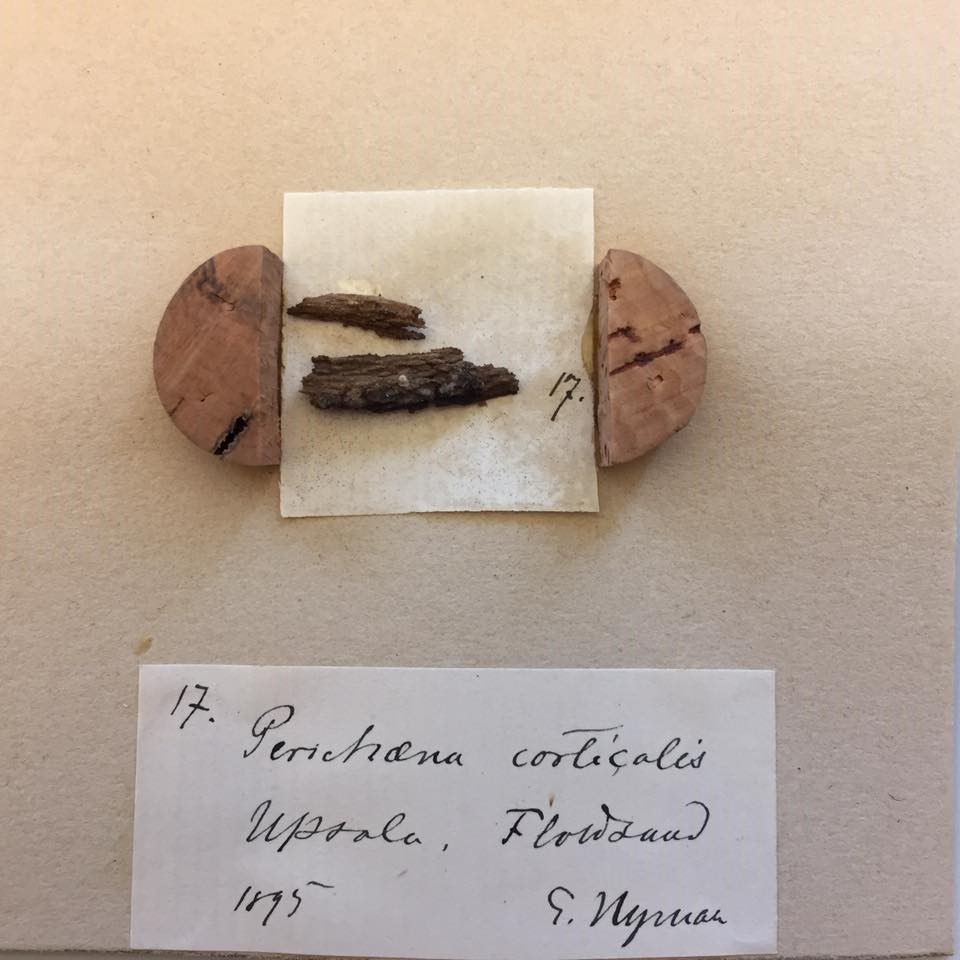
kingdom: Protozoa
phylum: Mycetozoa
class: Myxomycetes
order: Trichiales
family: Trichiaceae
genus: Perichaena
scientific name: Perichaena corticalis
